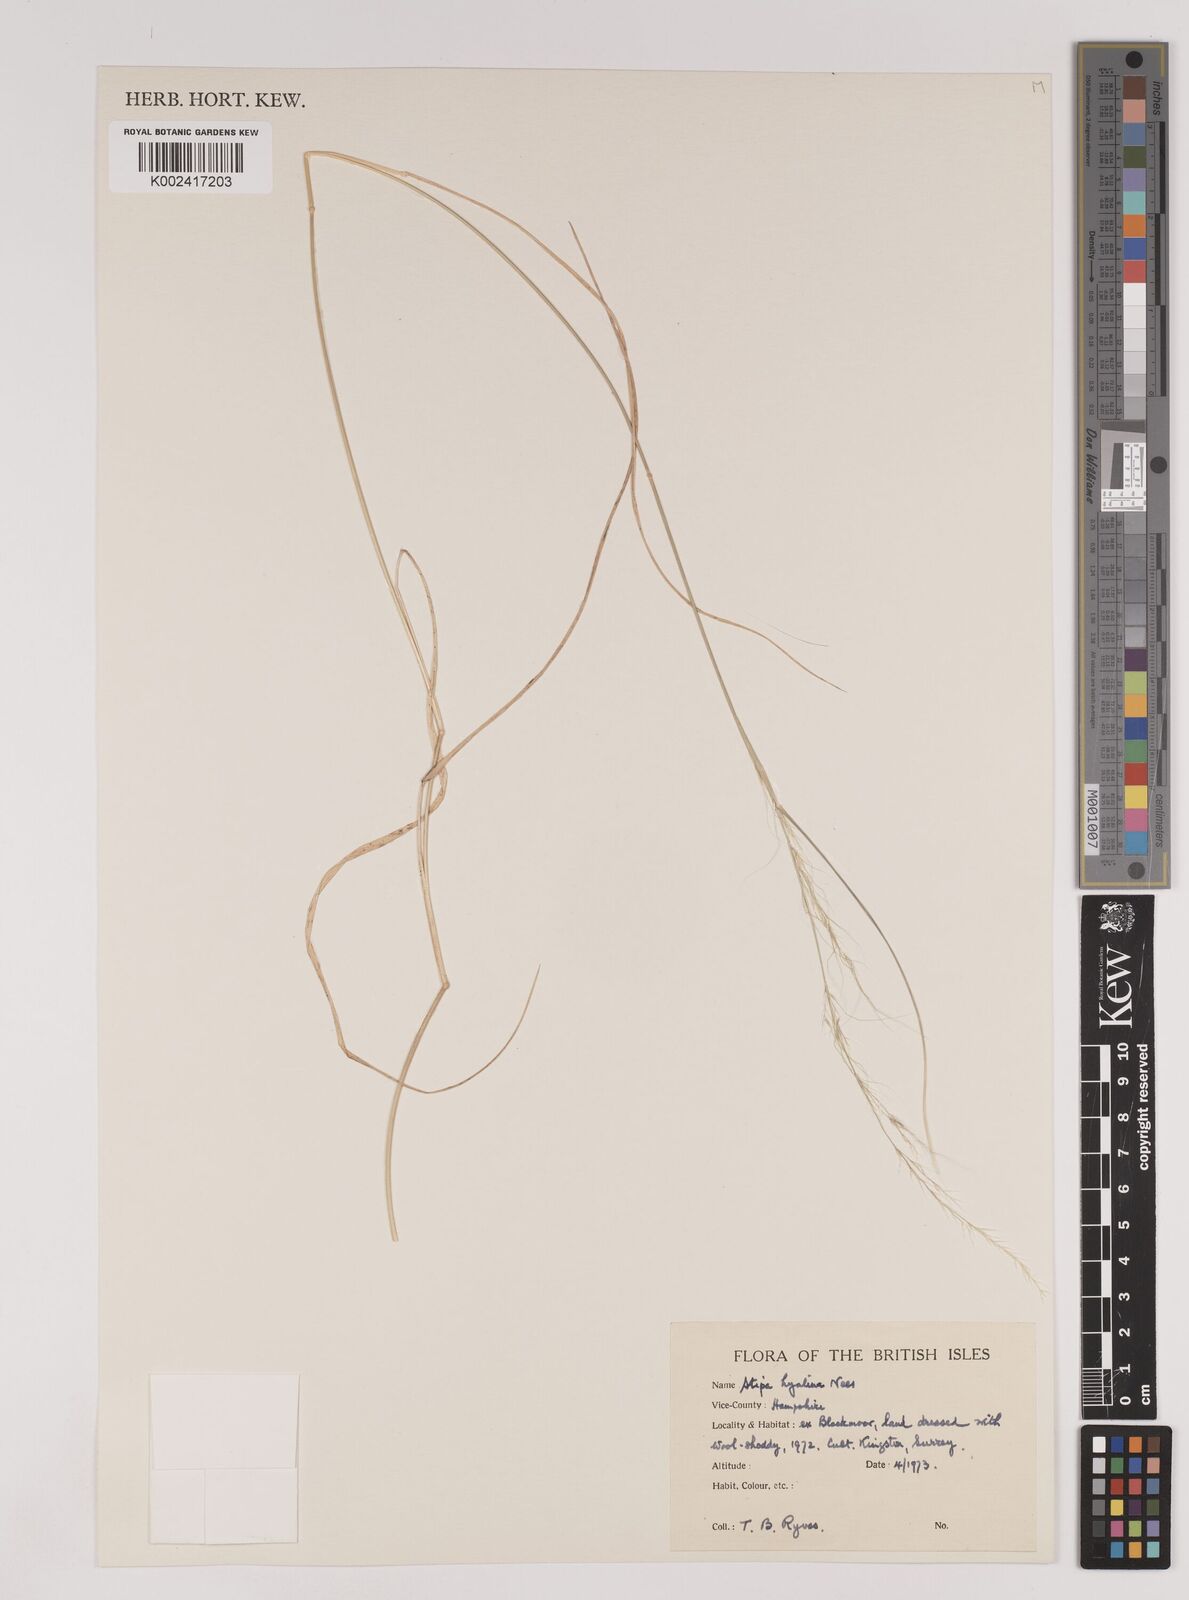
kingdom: Plantae
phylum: Tracheophyta
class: Liliopsida
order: Poales
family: Poaceae
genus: Nassella
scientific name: Nassella hyalina
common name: Spear grass
